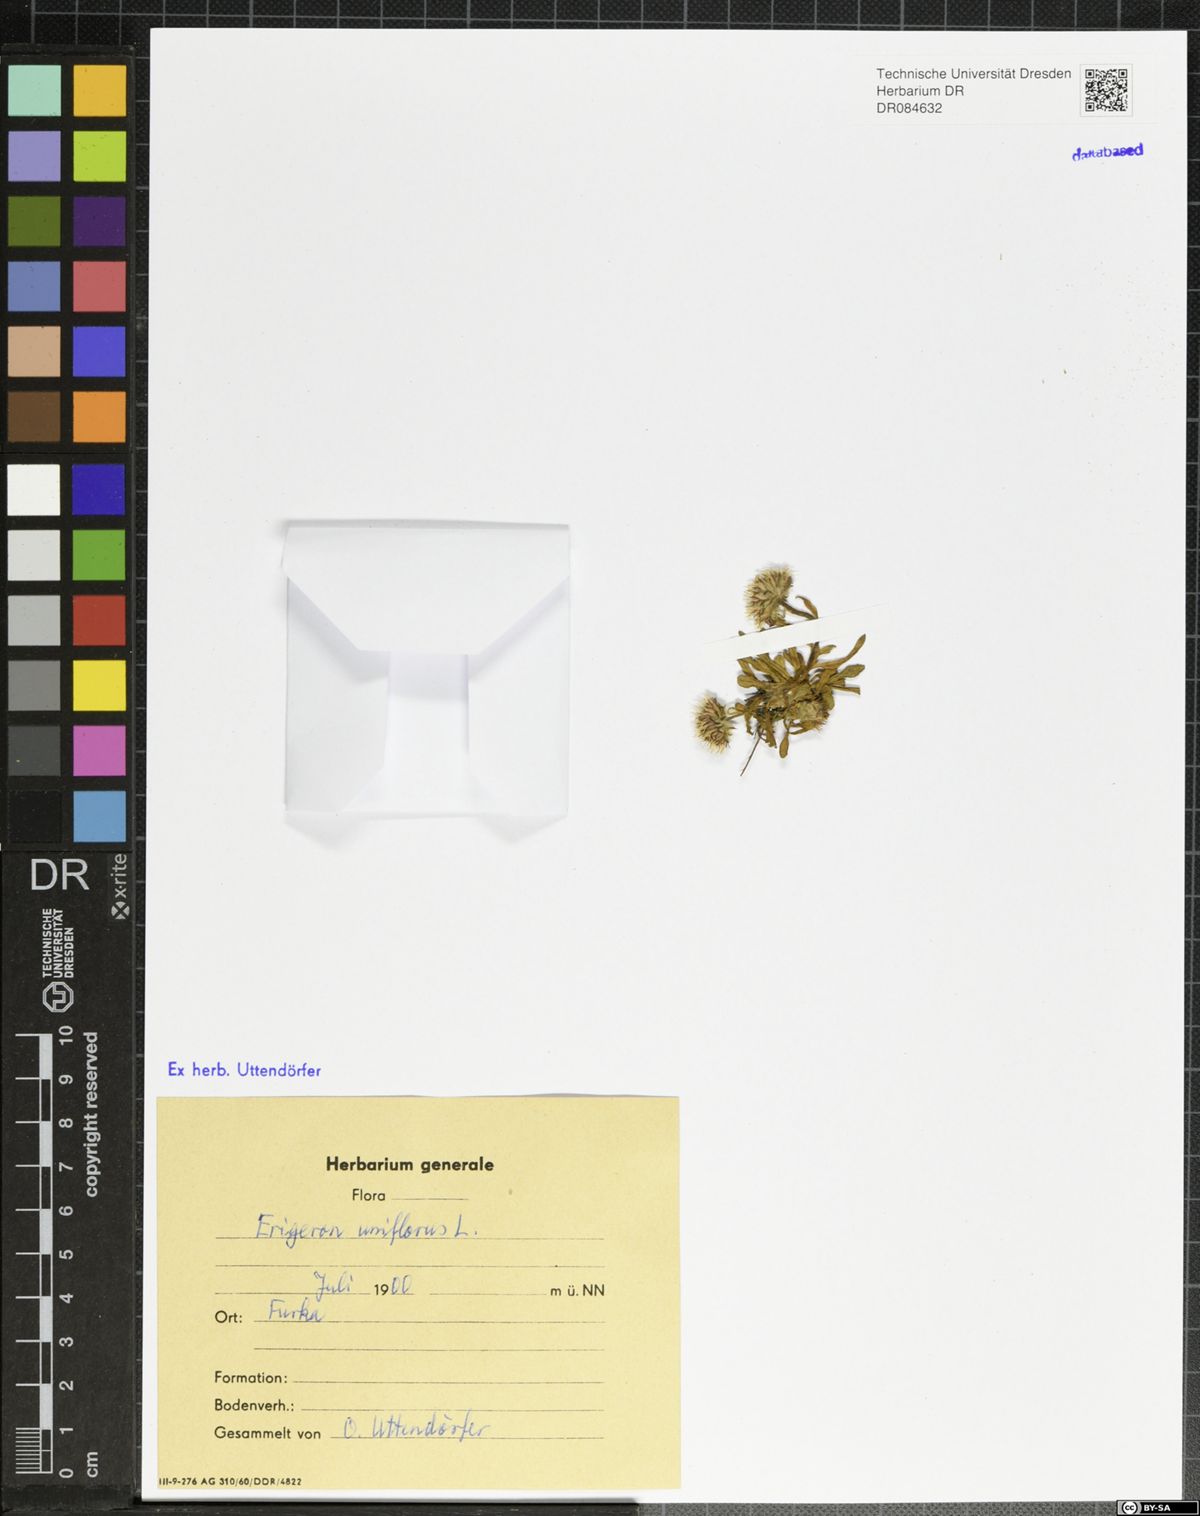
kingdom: Plantae
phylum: Tracheophyta
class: Magnoliopsida
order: Asterales
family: Asteraceae
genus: Erigeron
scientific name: Erigeron uniflorus
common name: Northern daisy
